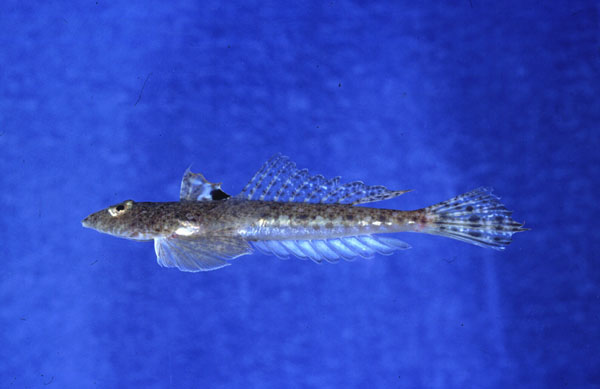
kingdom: Animalia
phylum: Chordata
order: Perciformes
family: Callionymidae
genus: Callionymus
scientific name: Callionymus filamentosus
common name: Blotchfin dragonet
